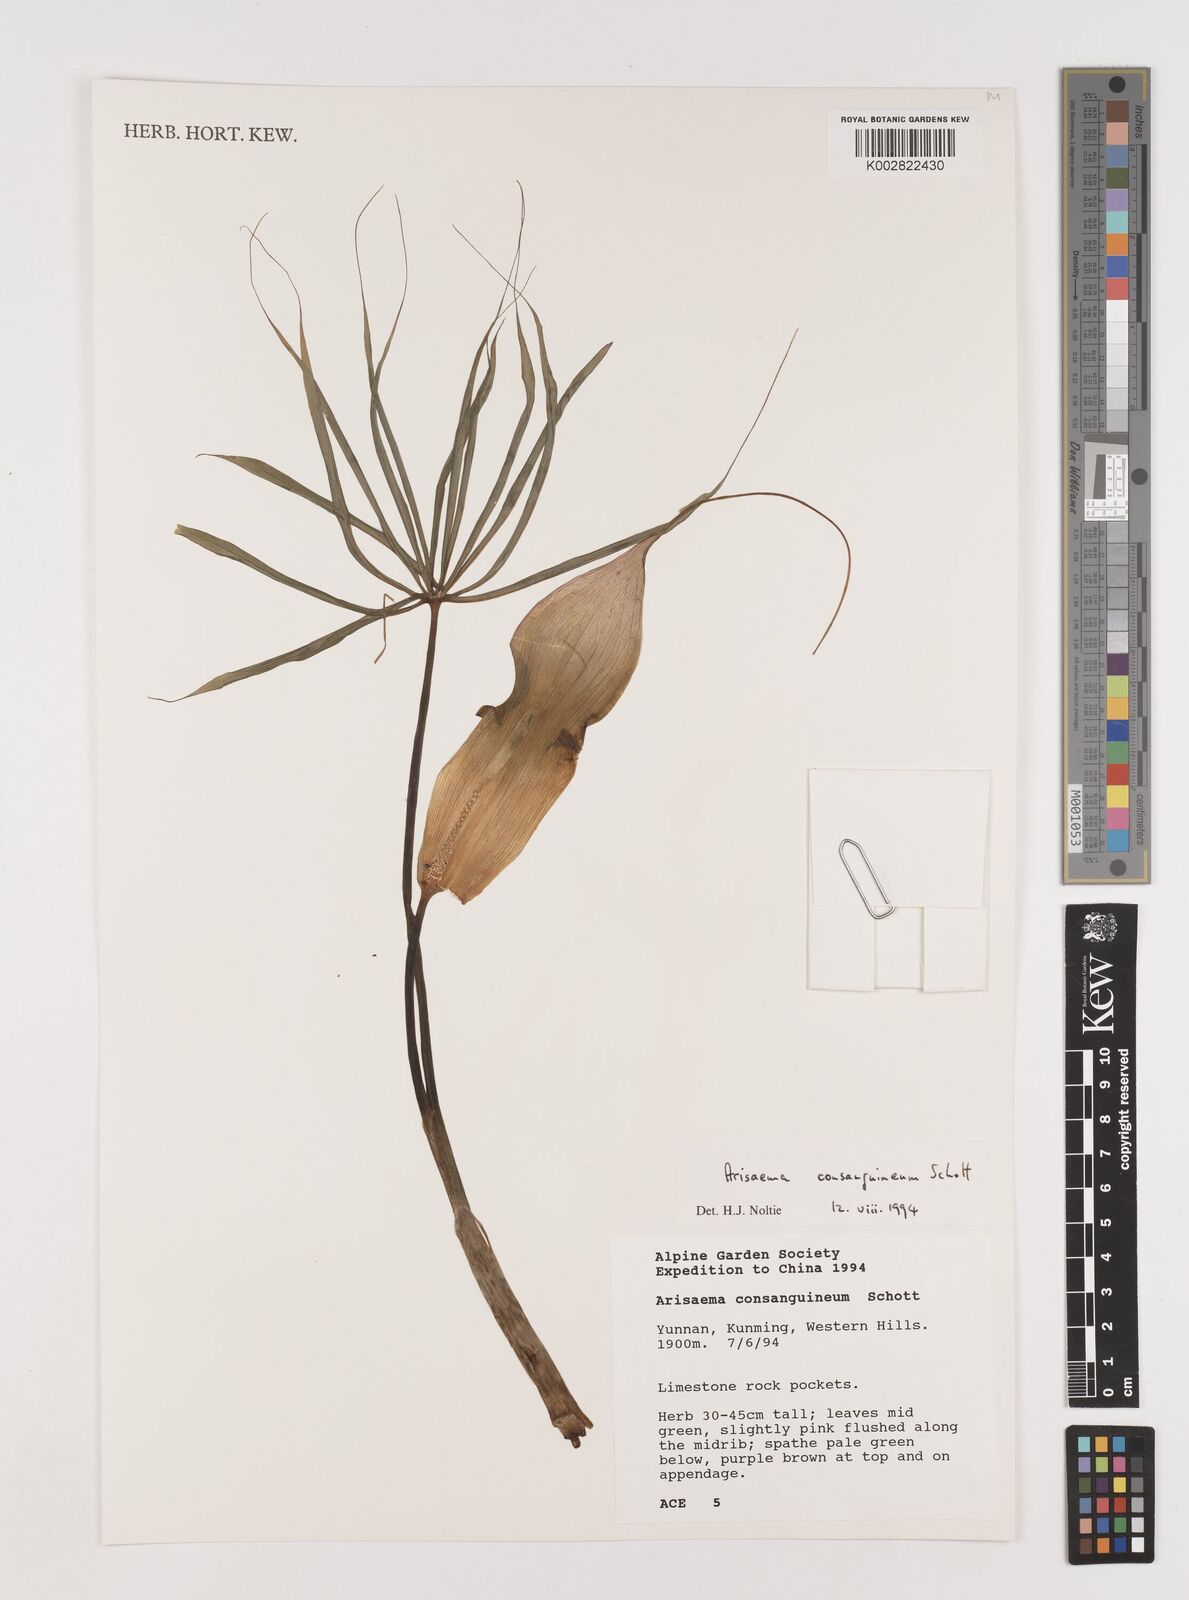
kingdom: Plantae
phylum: Tracheophyta
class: Liliopsida
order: Alismatales
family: Araceae
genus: Arisaema
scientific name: Arisaema erubescens
